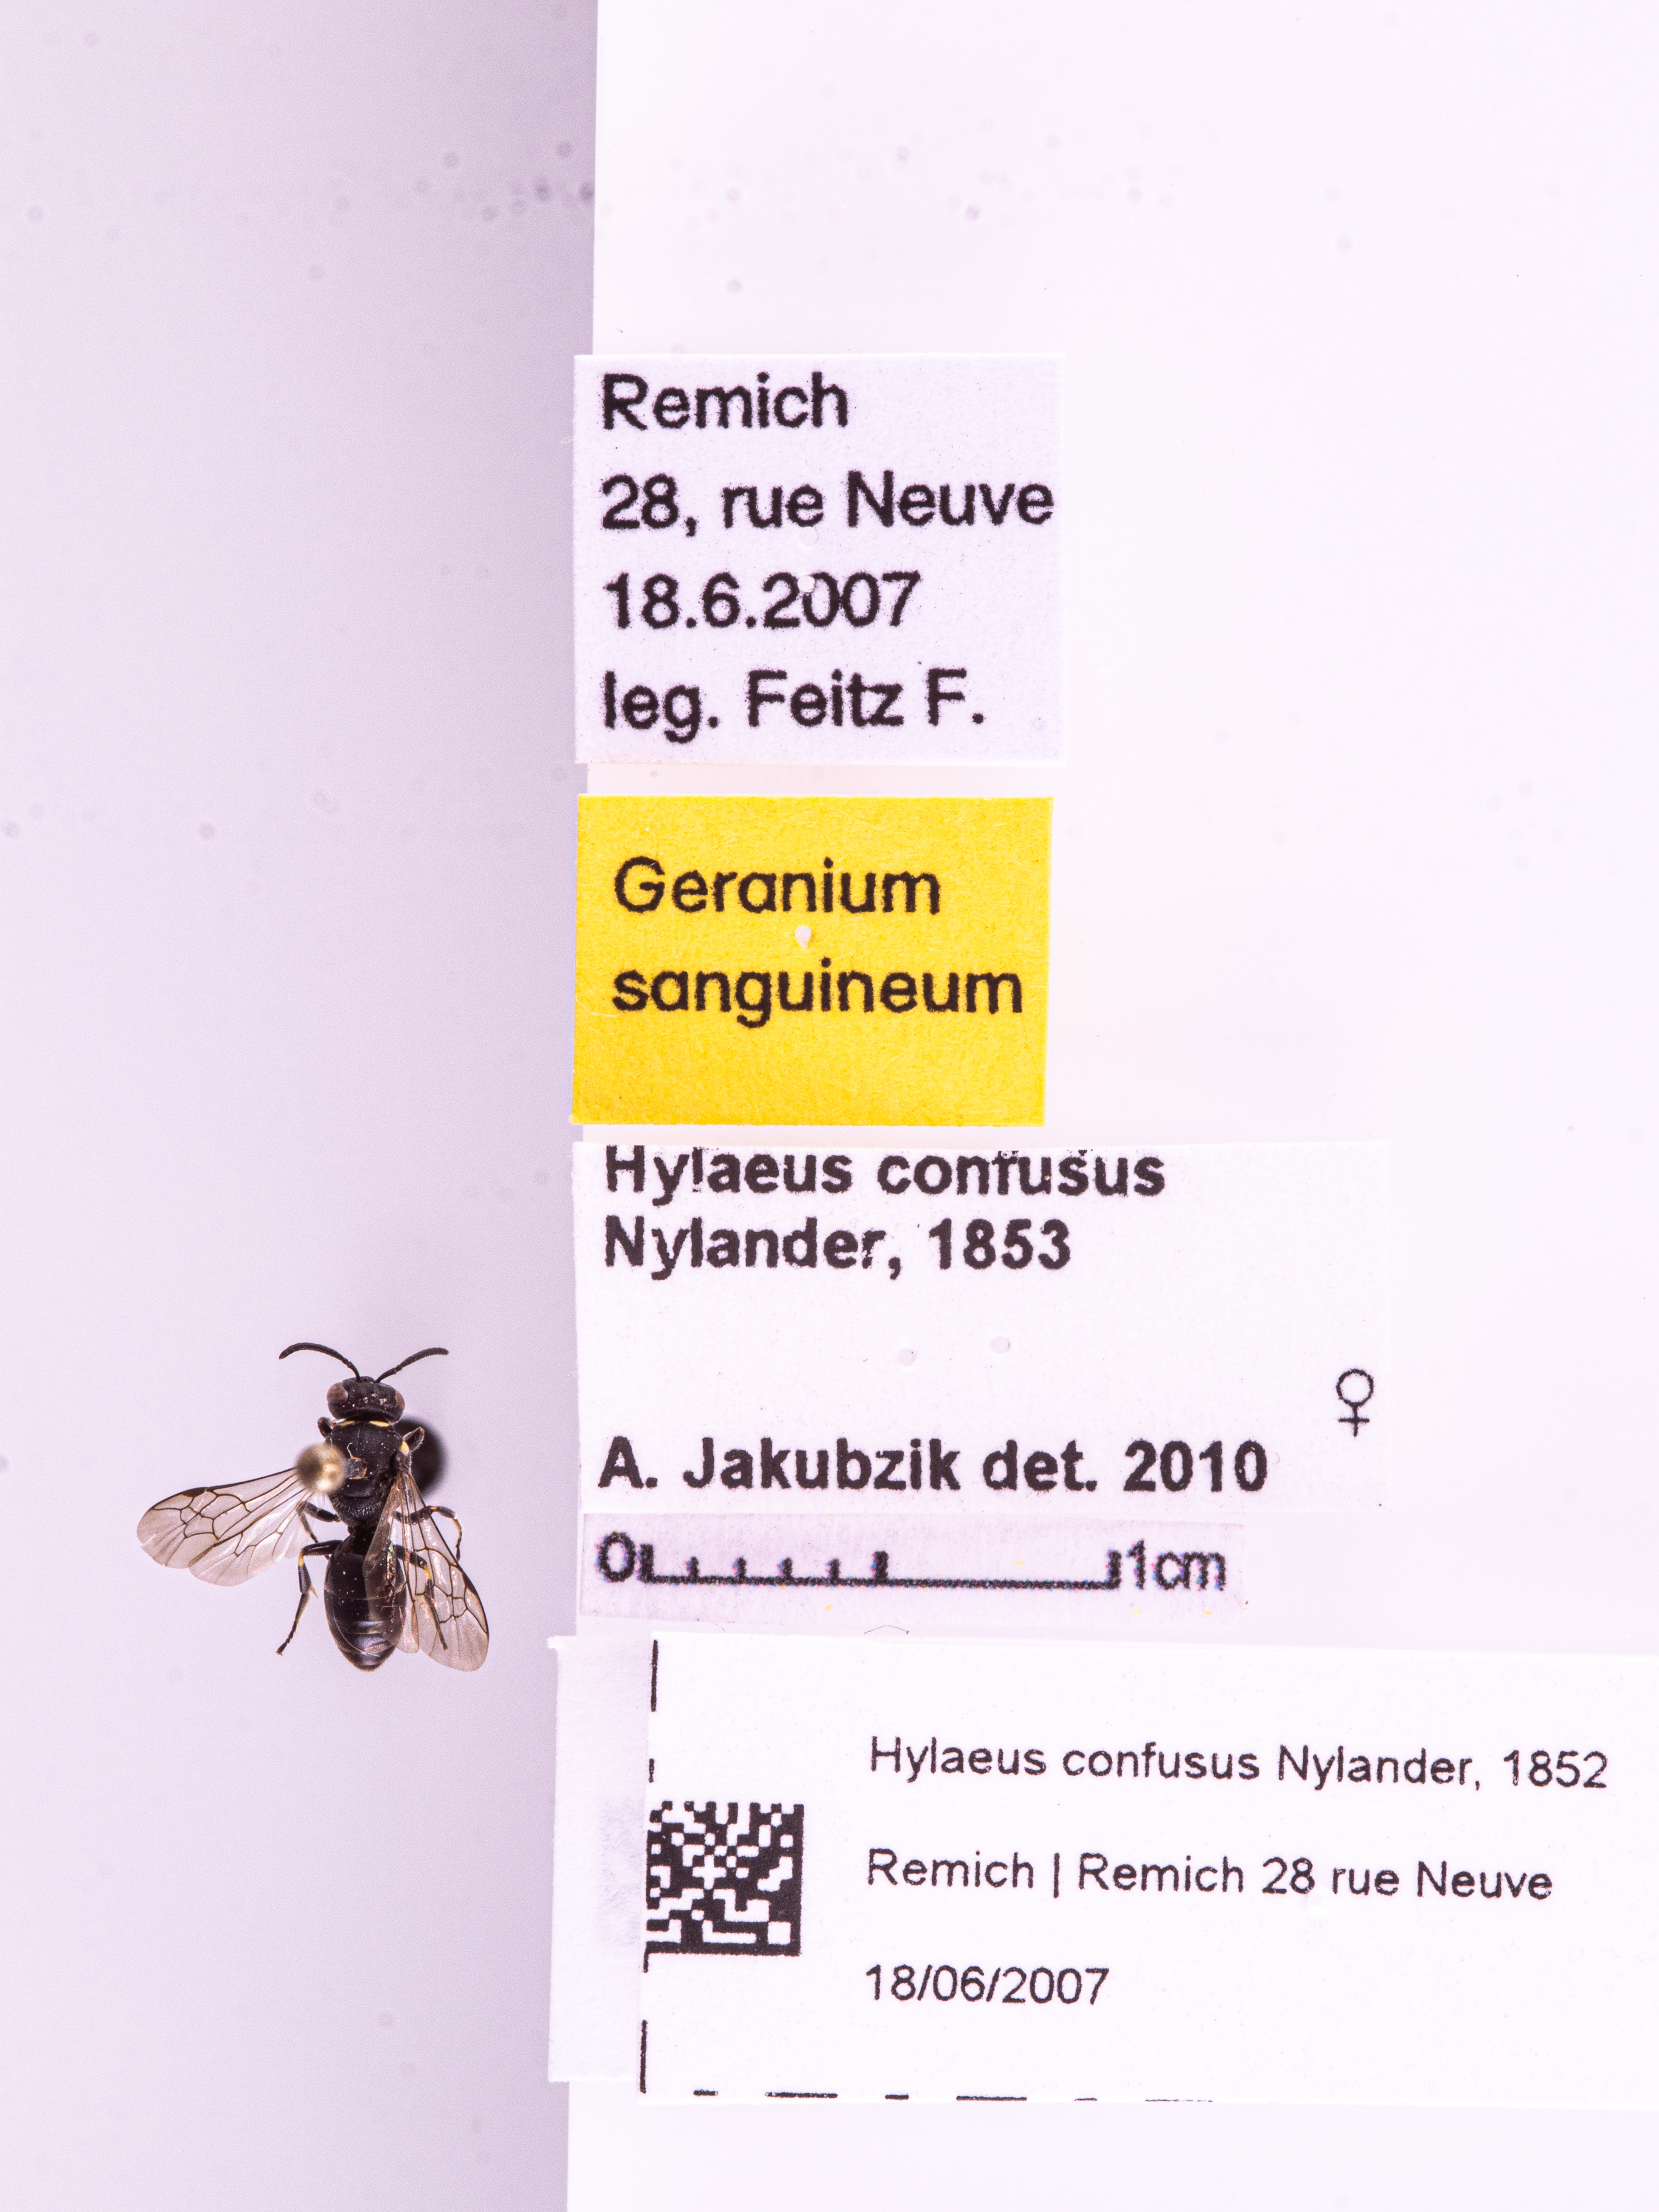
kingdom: Animalia
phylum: Arthropoda
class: Insecta
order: Hymenoptera
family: Colletidae
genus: Hylaeus
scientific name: Hylaeus confusus
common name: White-jawed yellow-face bee
